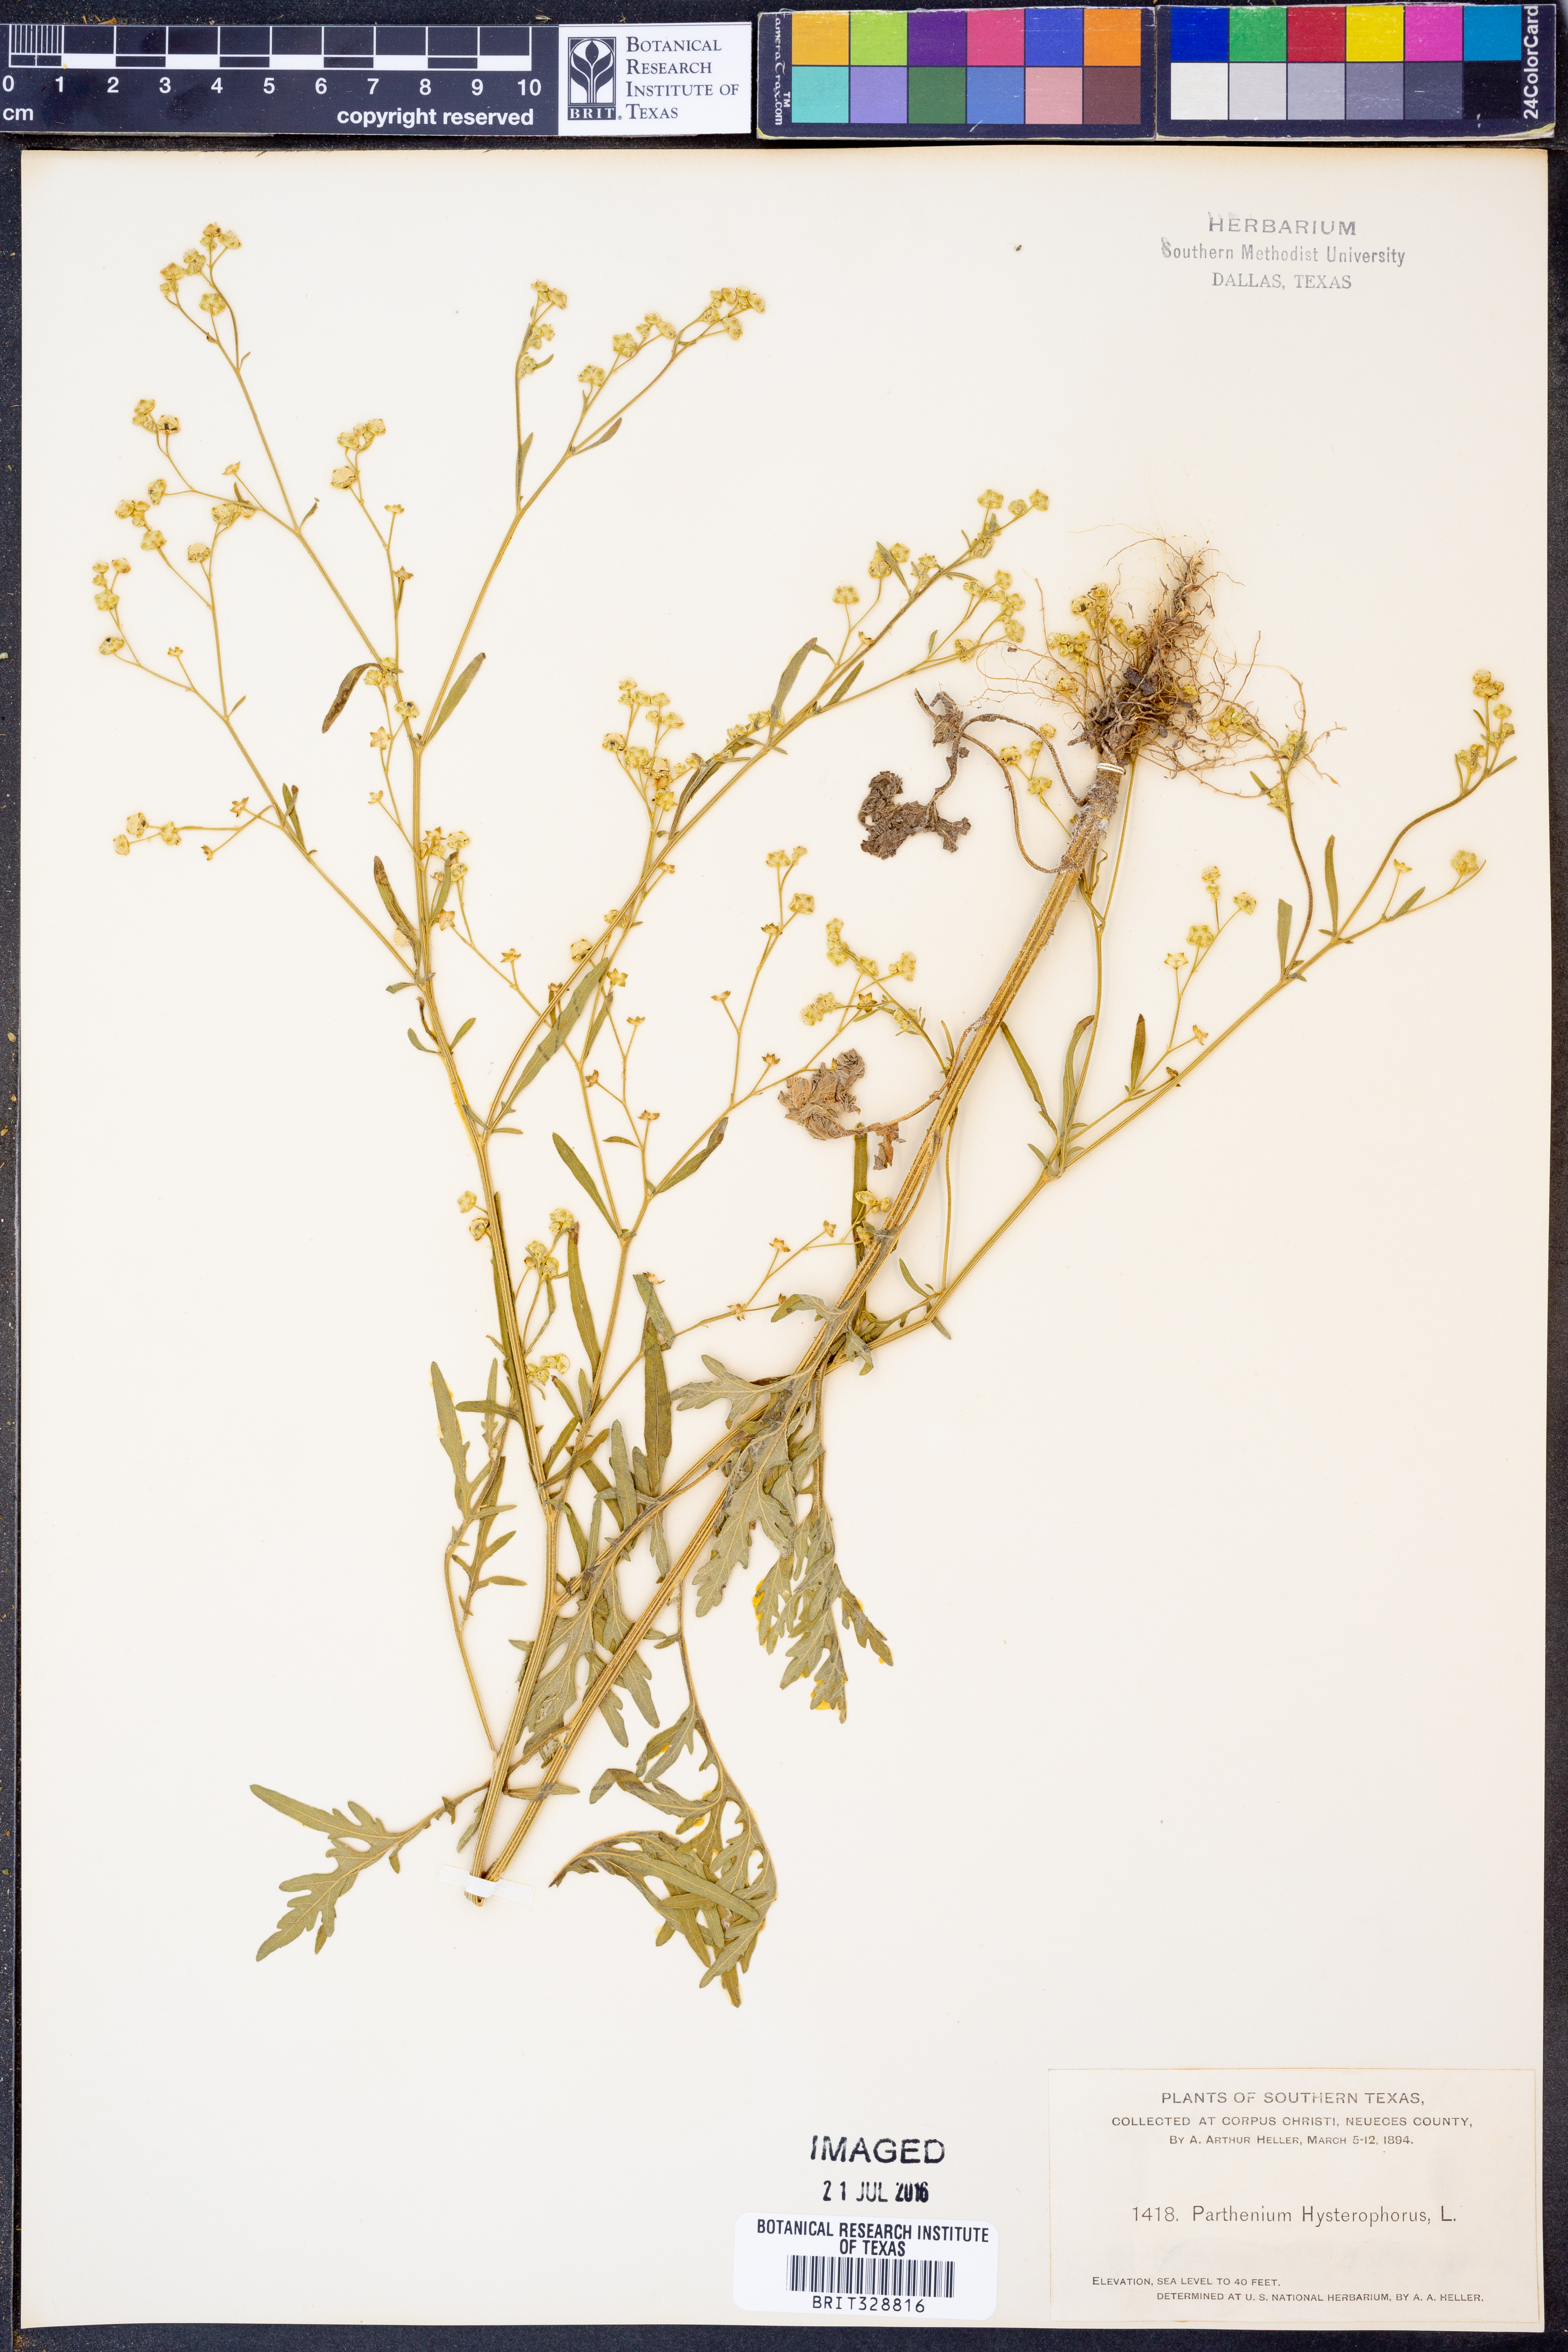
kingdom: Plantae
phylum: Tracheophyta
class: Magnoliopsida
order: Asterales
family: Asteraceae
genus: Parthenium
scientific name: Parthenium hysterophorus
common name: Santa maria feverfew
